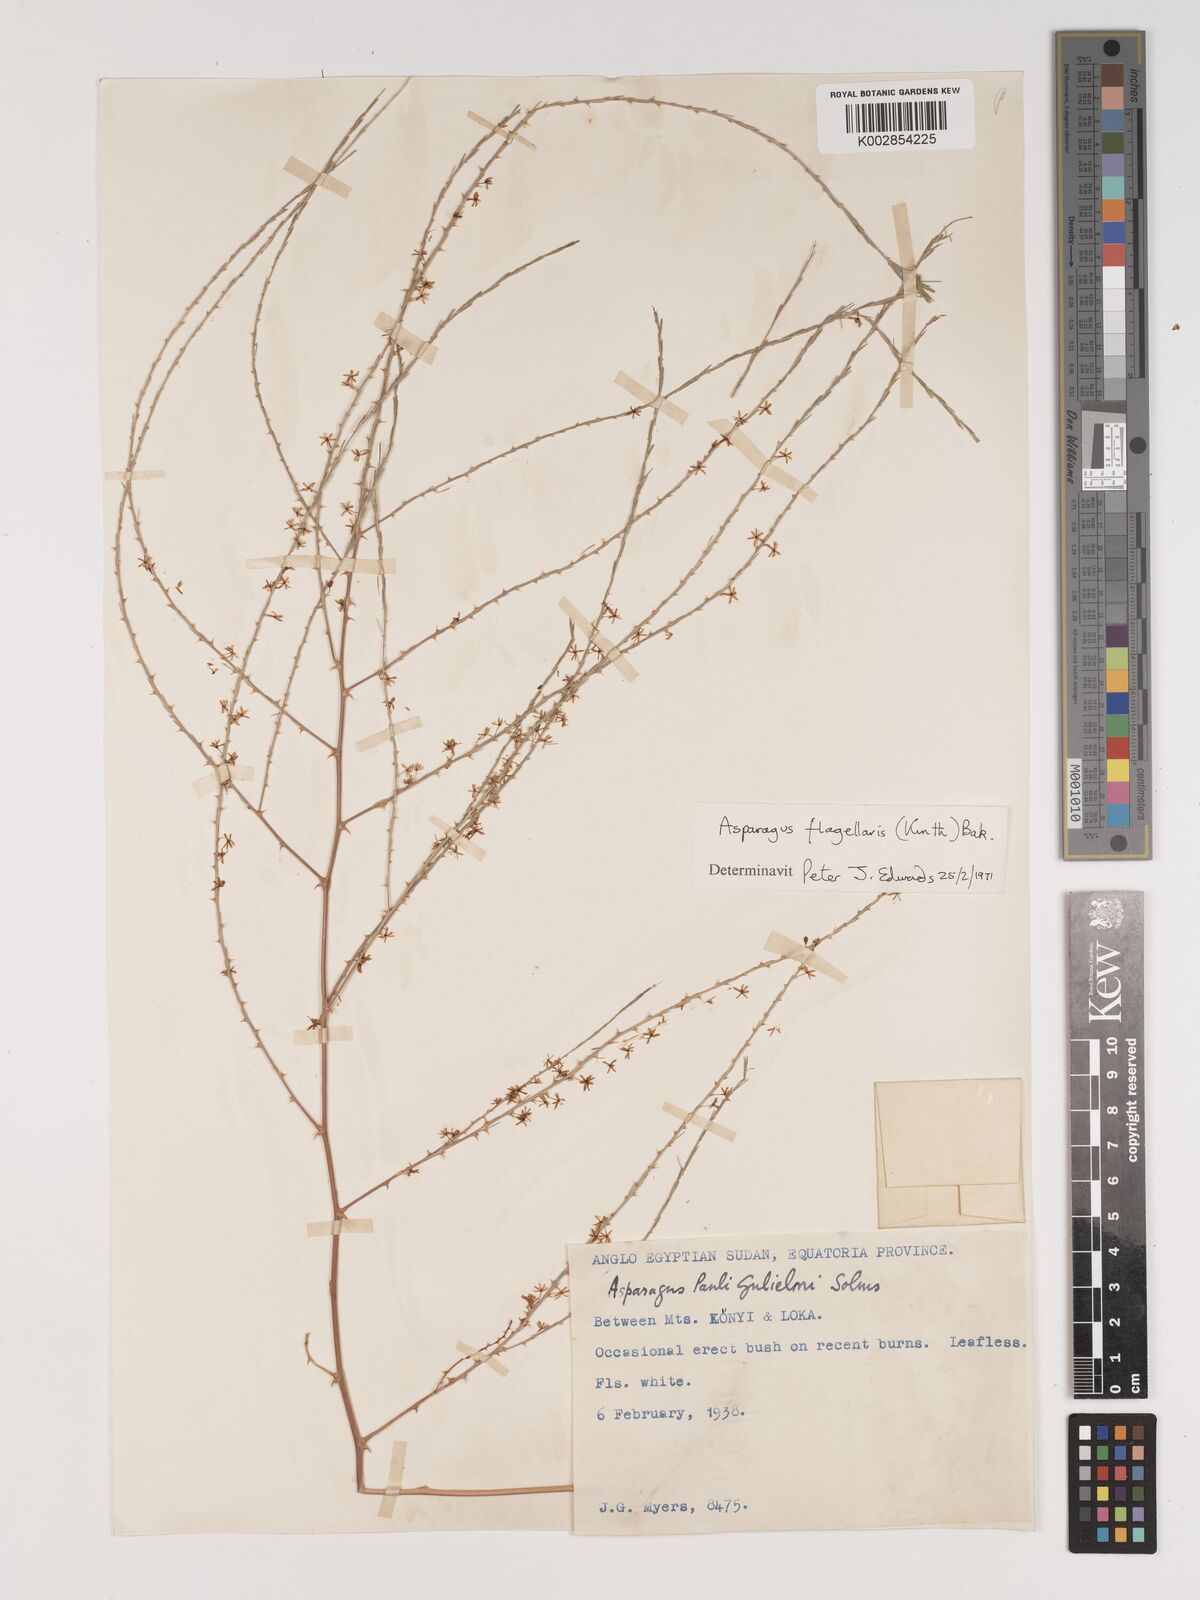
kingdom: Plantae
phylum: Tracheophyta
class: Liliopsida
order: Asparagales
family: Asparagaceae
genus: Asparagus
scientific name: Asparagus flagellaris
